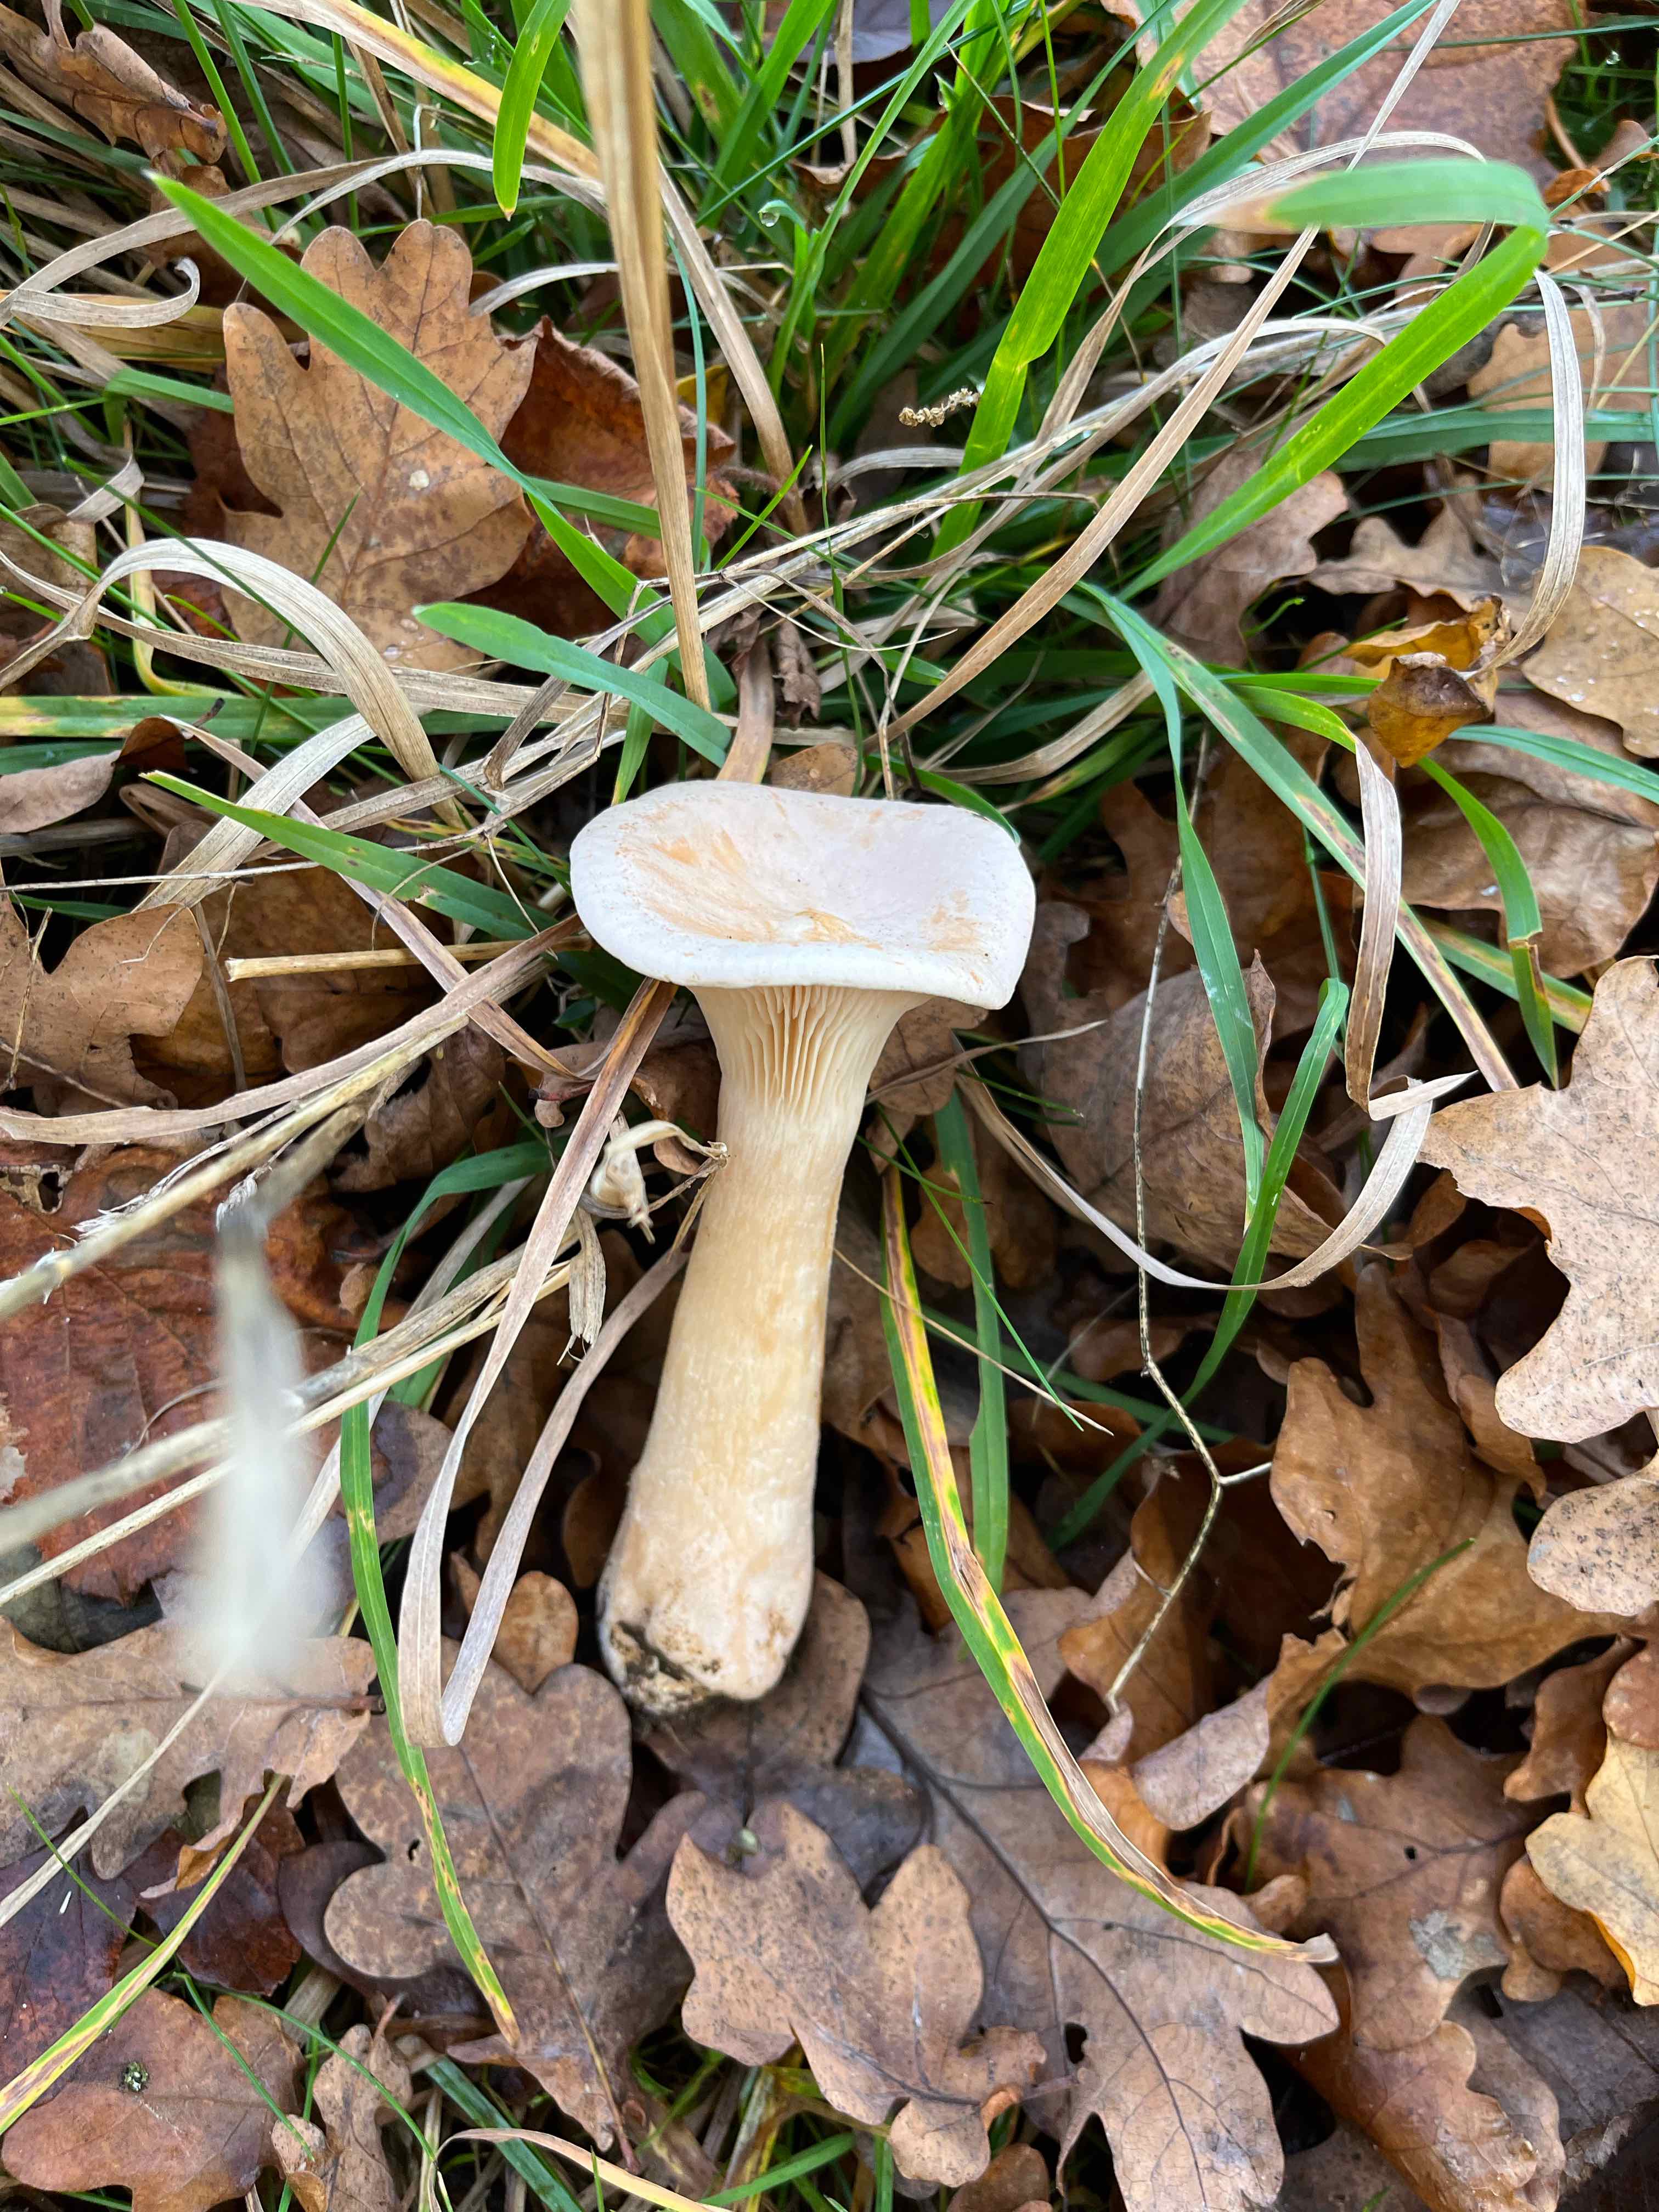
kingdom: Fungi
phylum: Basidiomycota
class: Agaricomycetes
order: Agaricales
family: Tricholomataceae
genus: Infundibulicybe
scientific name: Infundibulicybe geotropa
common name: stor tragthat
